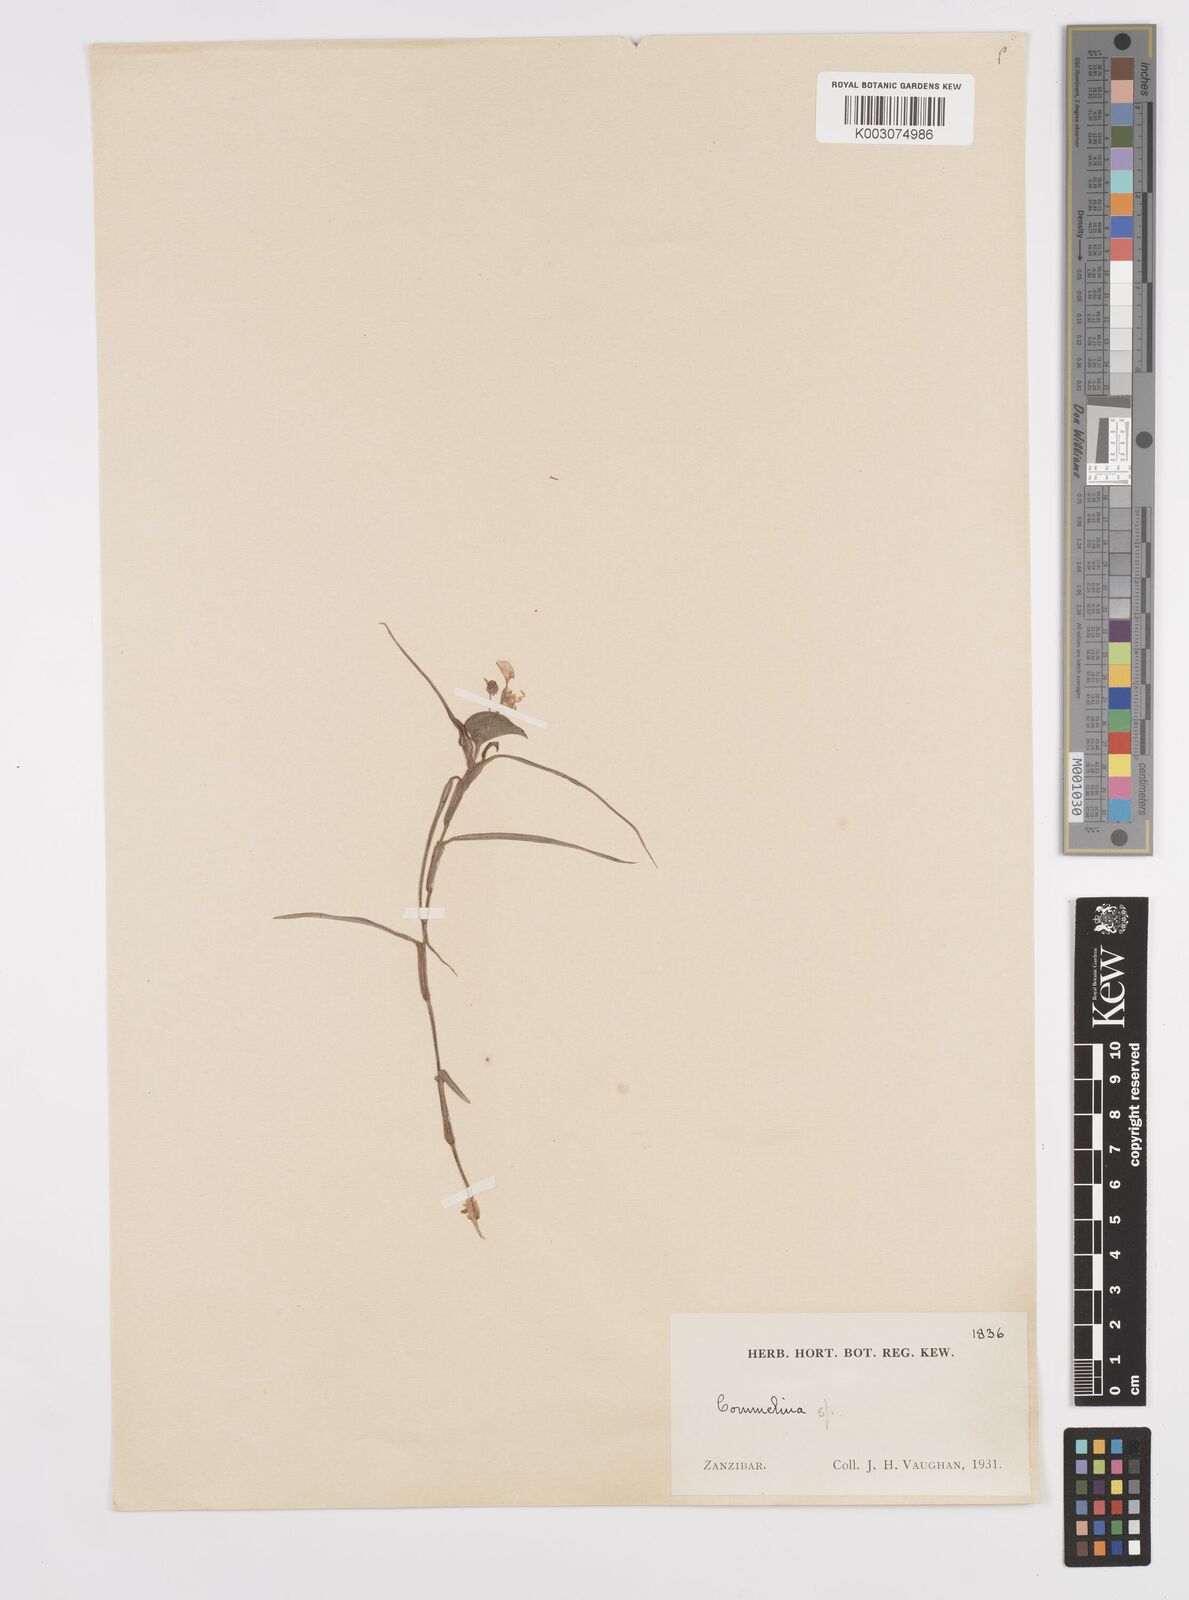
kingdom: Plantae
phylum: Tracheophyta
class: Liliopsida
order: Commelinales
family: Commelinaceae
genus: Commelina
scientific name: Commelina
